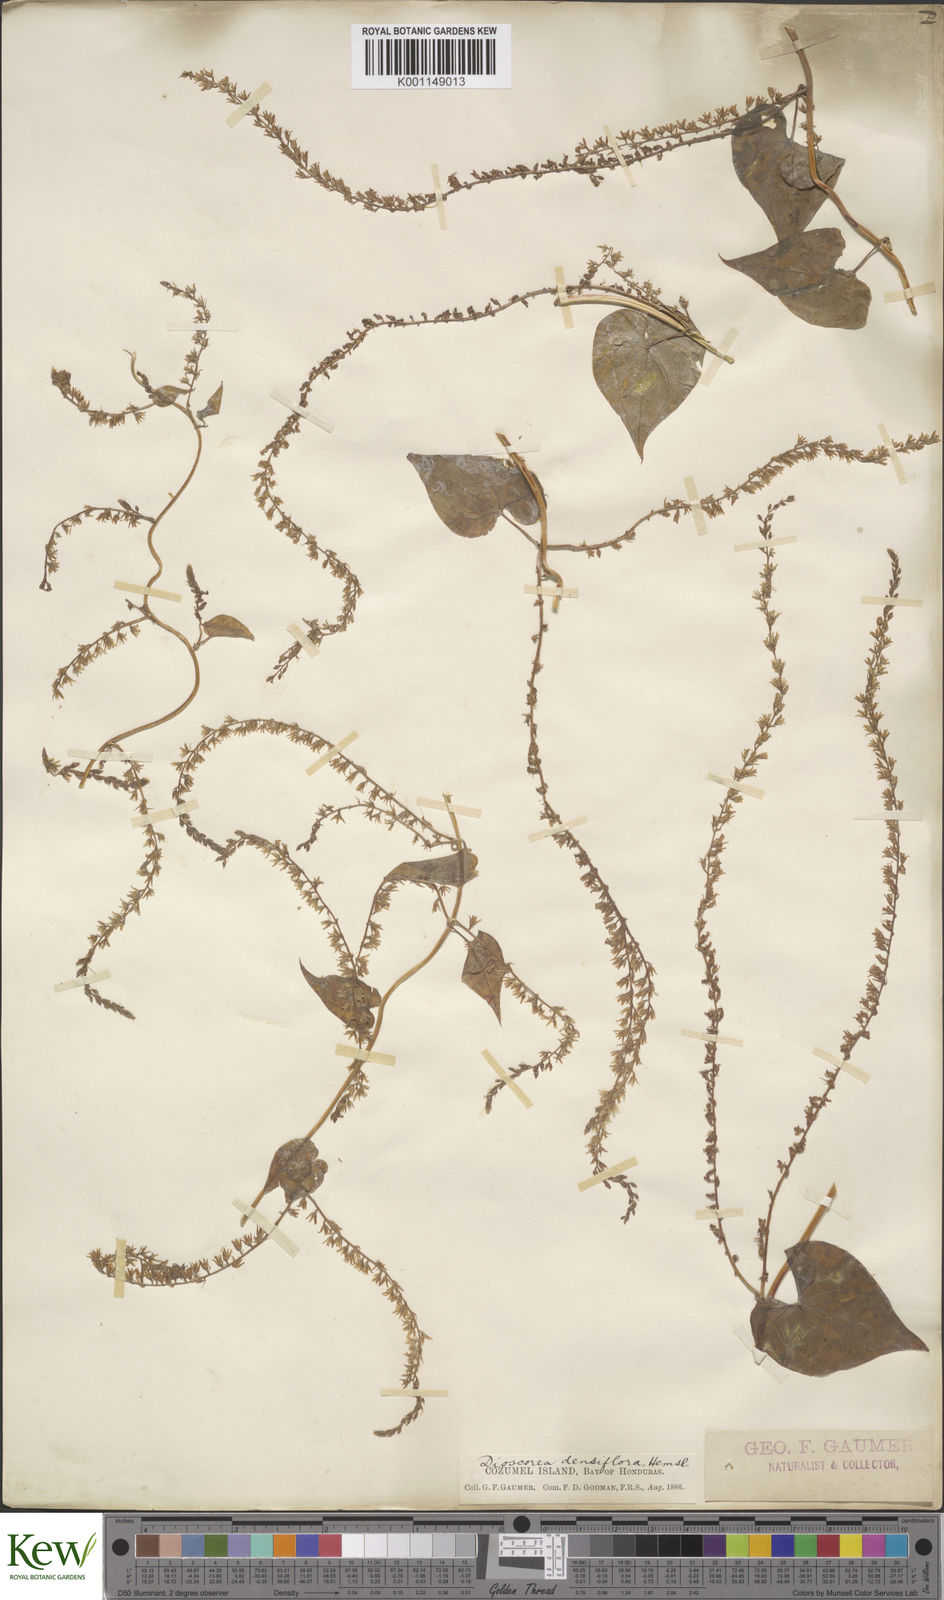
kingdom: Plantae
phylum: Tracheophyta
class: Liliopsida
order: Dioscoreales
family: Dioscoreaceae
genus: Dioscorea
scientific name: Dioscorea densiflora
